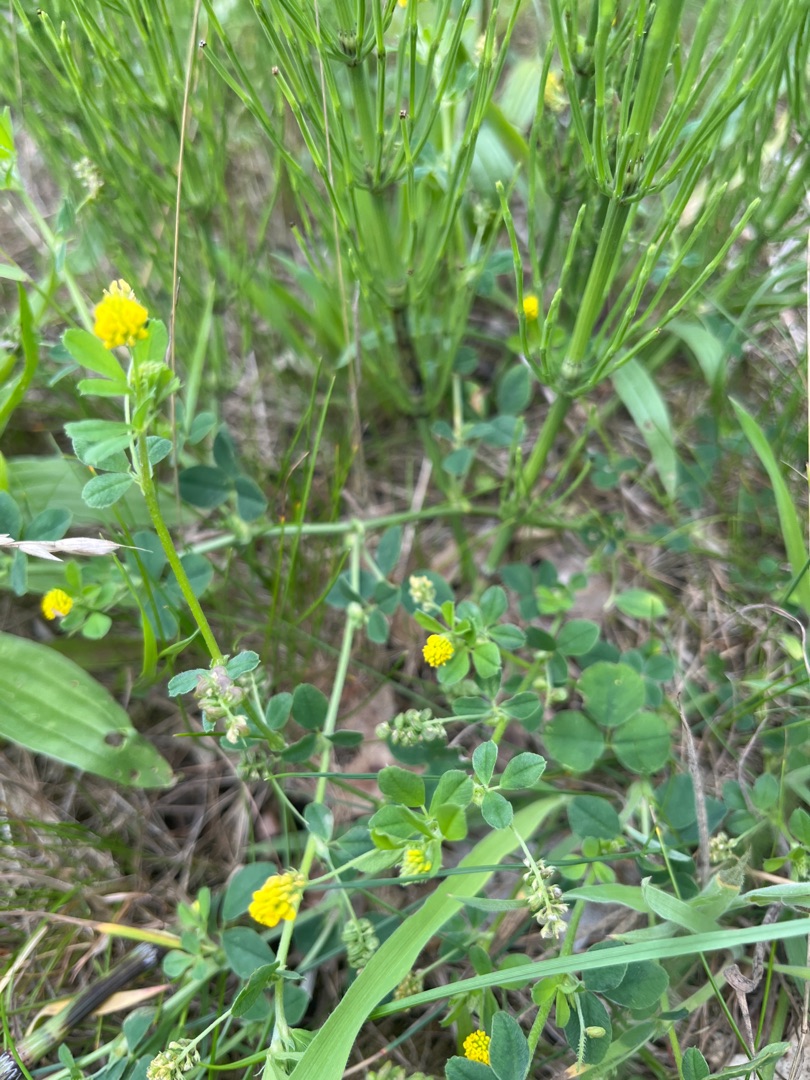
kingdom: Plantae
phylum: Tracheophyta
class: Magnoliopsida
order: Fabales
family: Fabaceae
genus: Medicago
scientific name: Medicago lupulina
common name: Humle-sneglebælg
